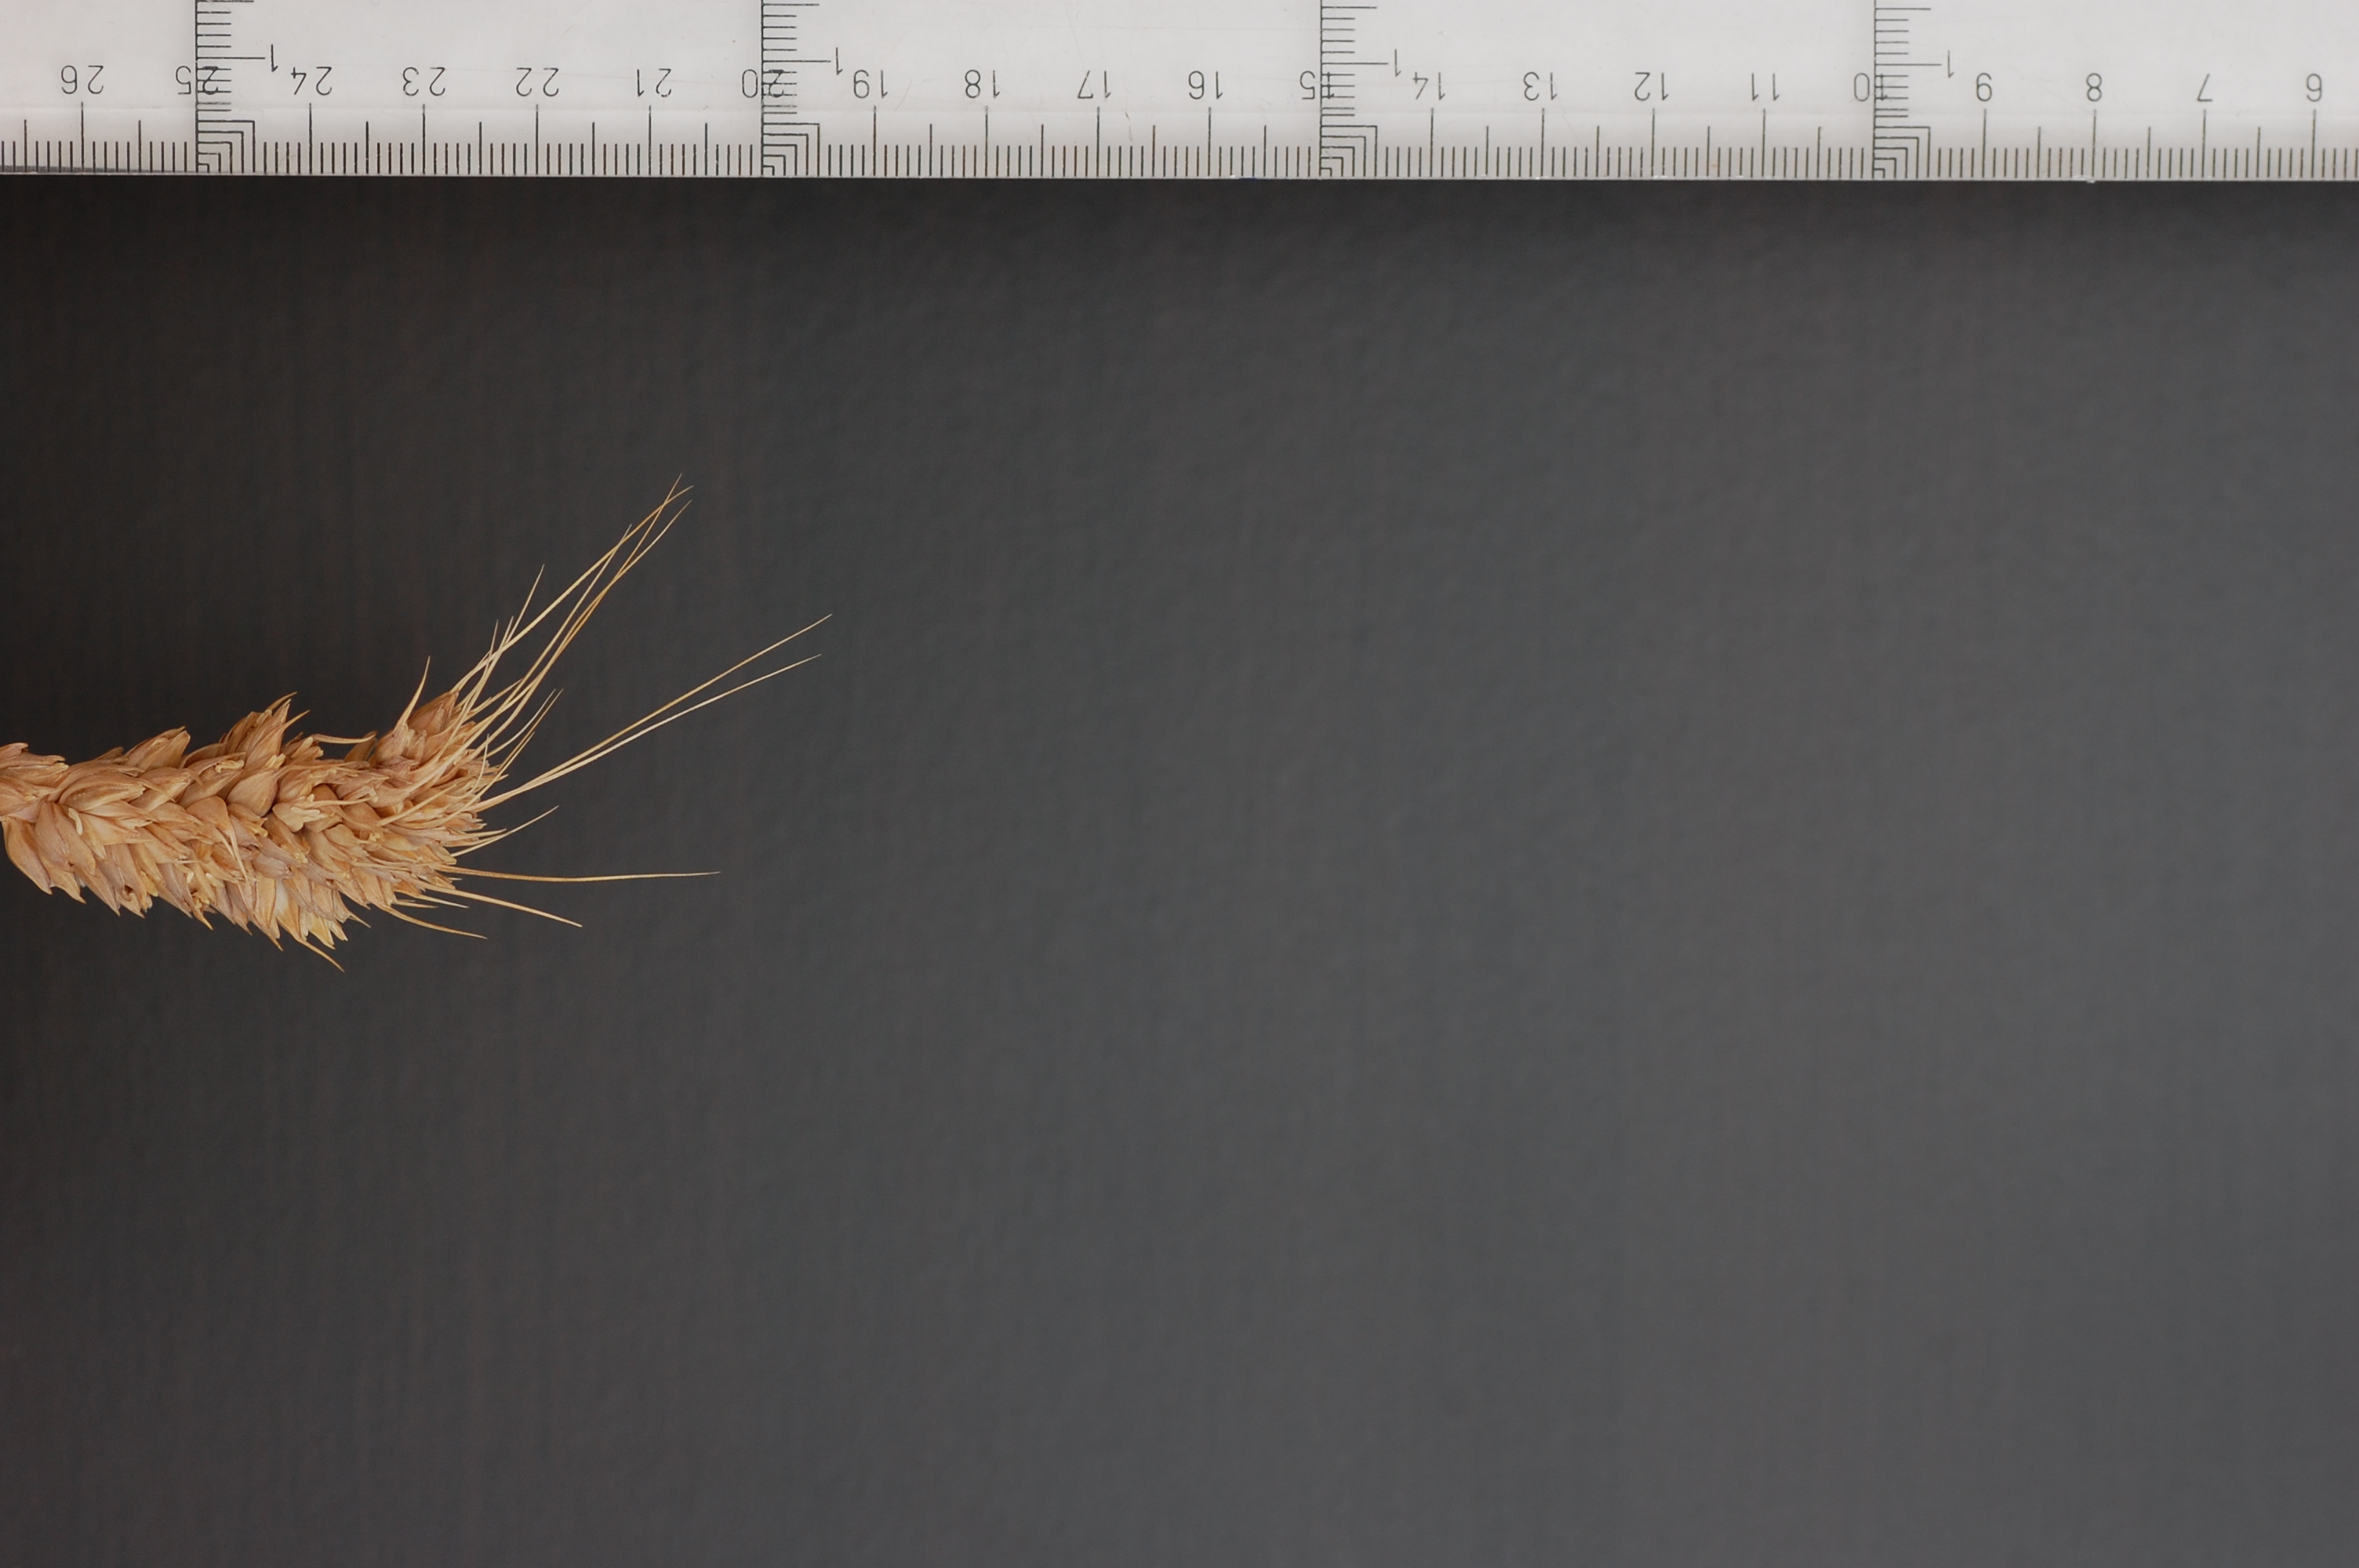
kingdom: Plantae
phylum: Tracheophyta
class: Liliopsida
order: Poales
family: Poaceae
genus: Triticum
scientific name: Triticum aestivum
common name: Common wheat
